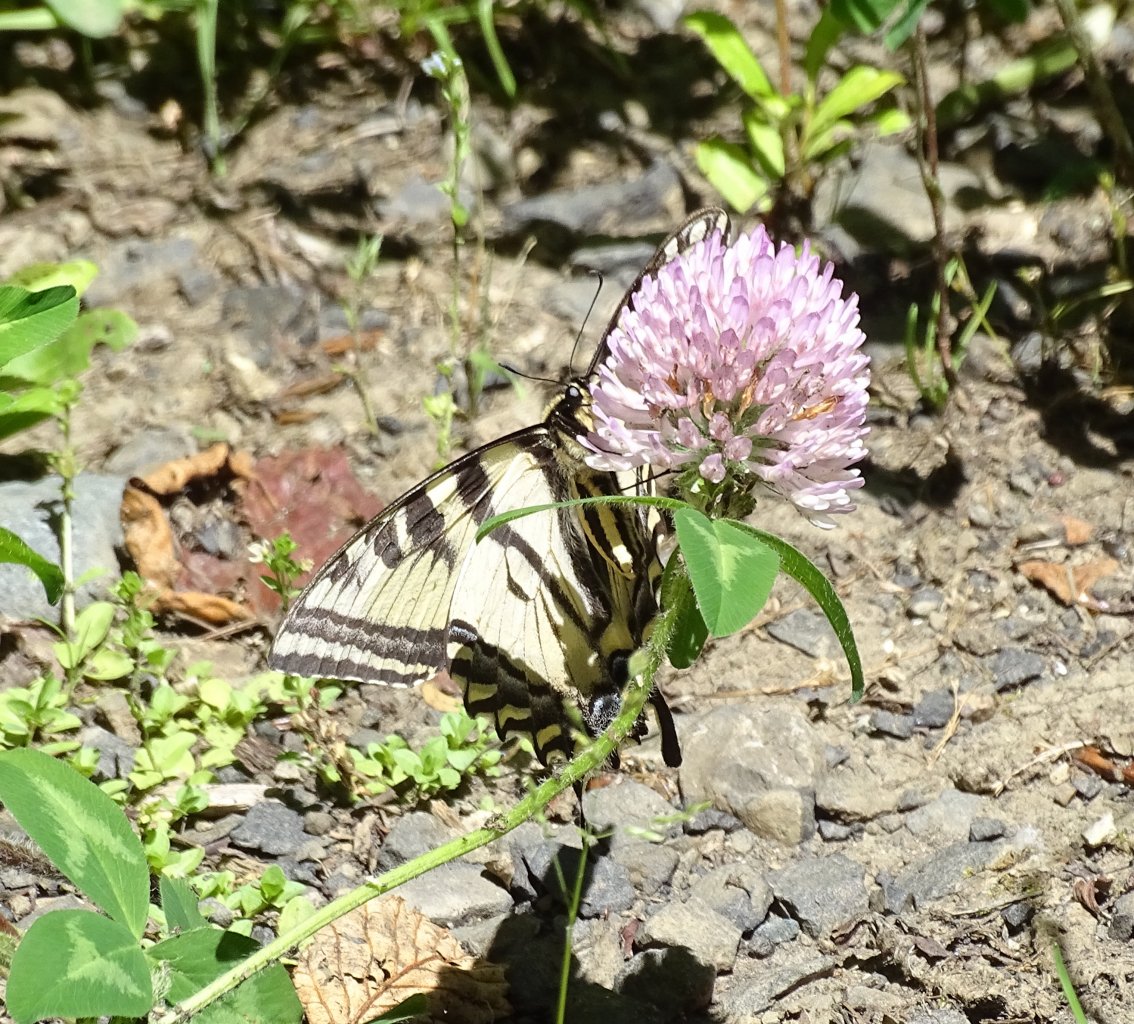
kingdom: Animalia
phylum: Arthropoda
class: Insecta
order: Lepidoptera
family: Papilionidae
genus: Pterourus
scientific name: Pterourus rutulus
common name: Western Tiger Swallowtail
